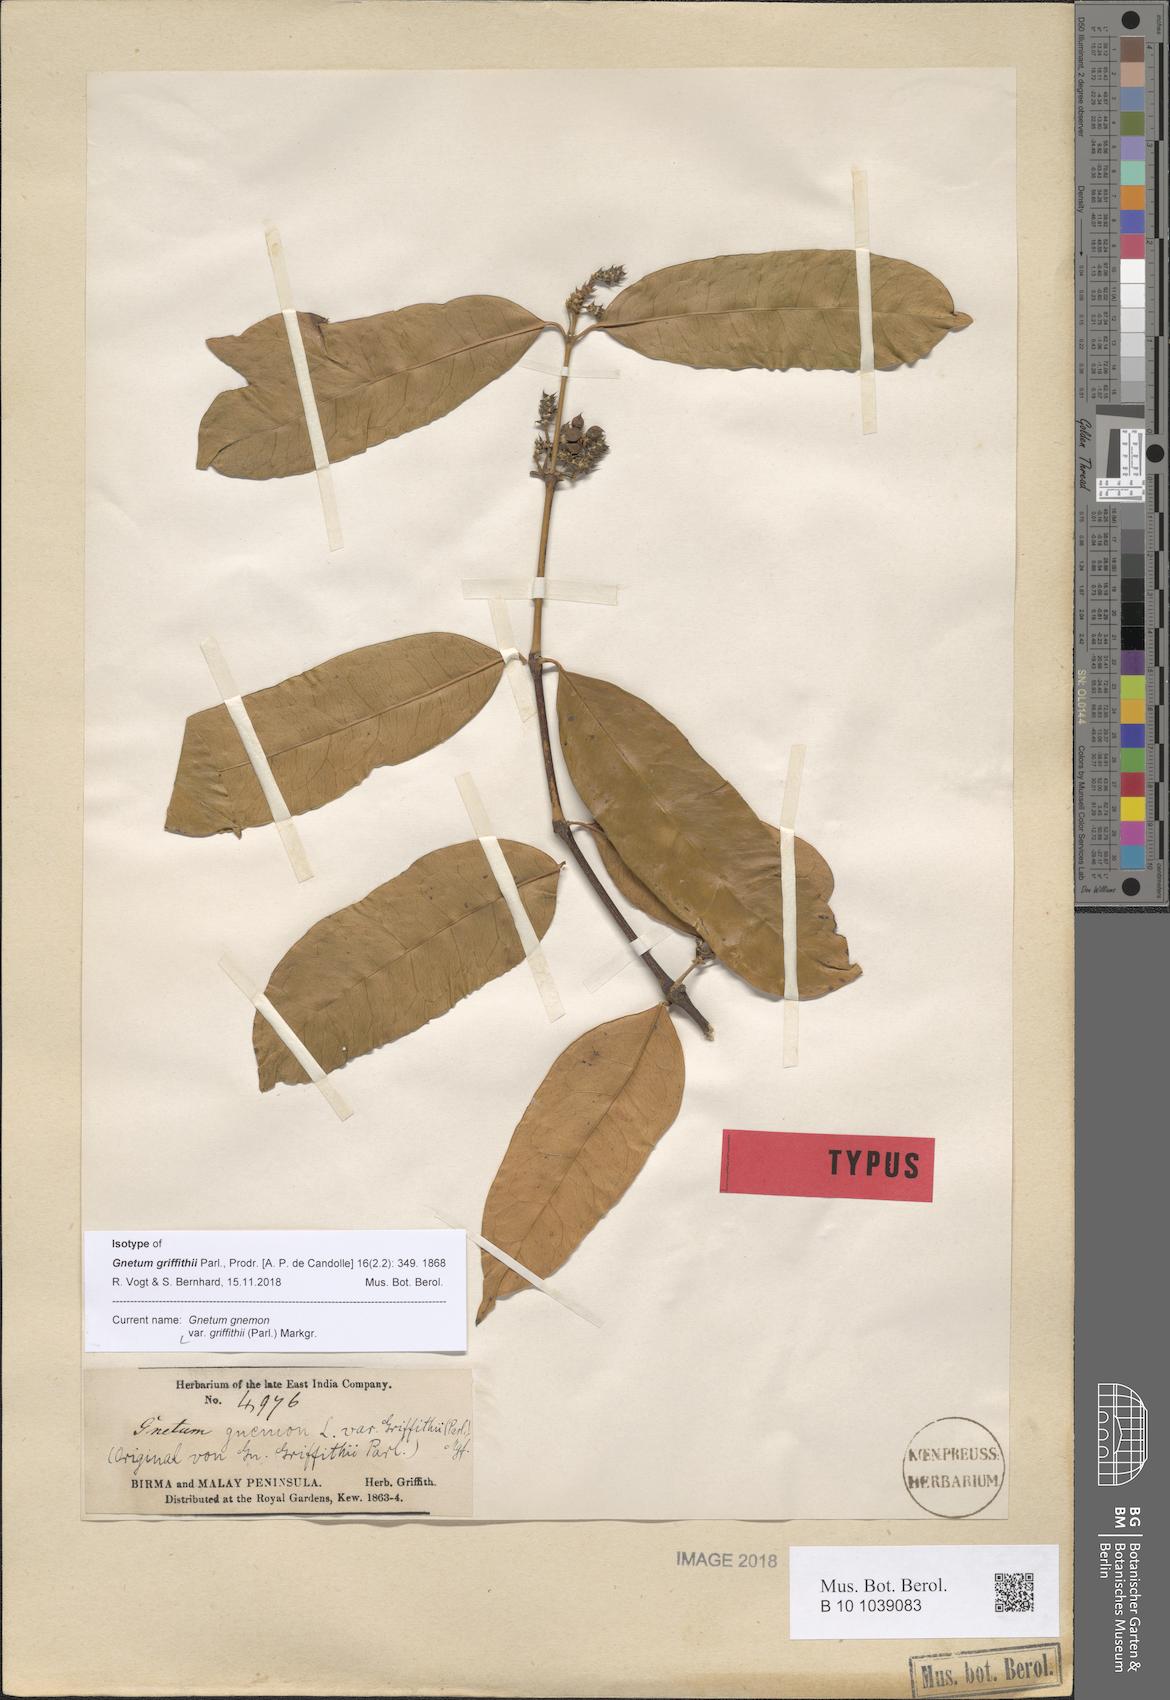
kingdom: Plantae
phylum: Tracheophyta
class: Gnetopsida
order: Gnetales
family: Gnetaceae
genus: Gnetum
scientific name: Gnetum gnemon
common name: Spanish joint-fir
